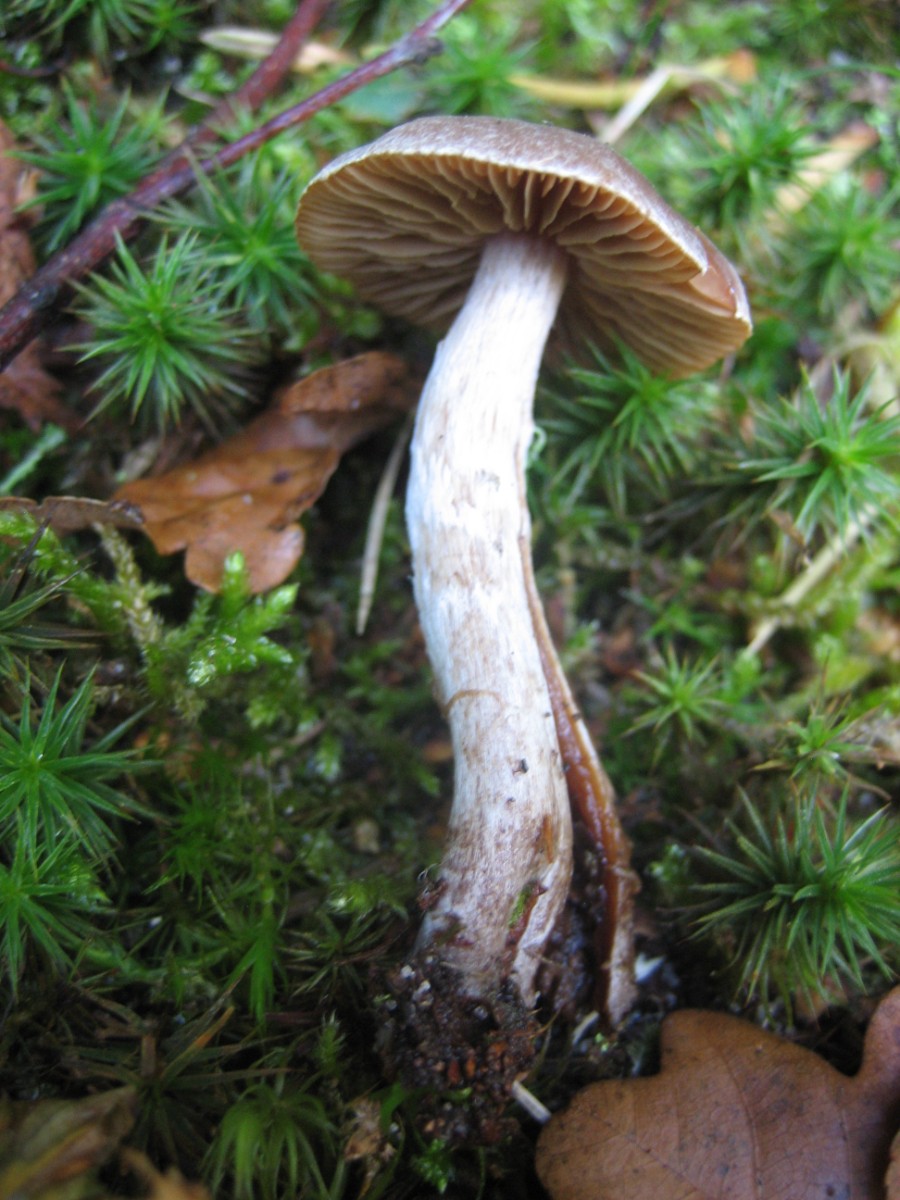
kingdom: Fungi
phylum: Basidiomycota
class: Agaricomycetes
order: Agaricales
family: Cortinariaceae
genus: Cortinarius
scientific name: Cortinarius
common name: pelargonie-slørhat
